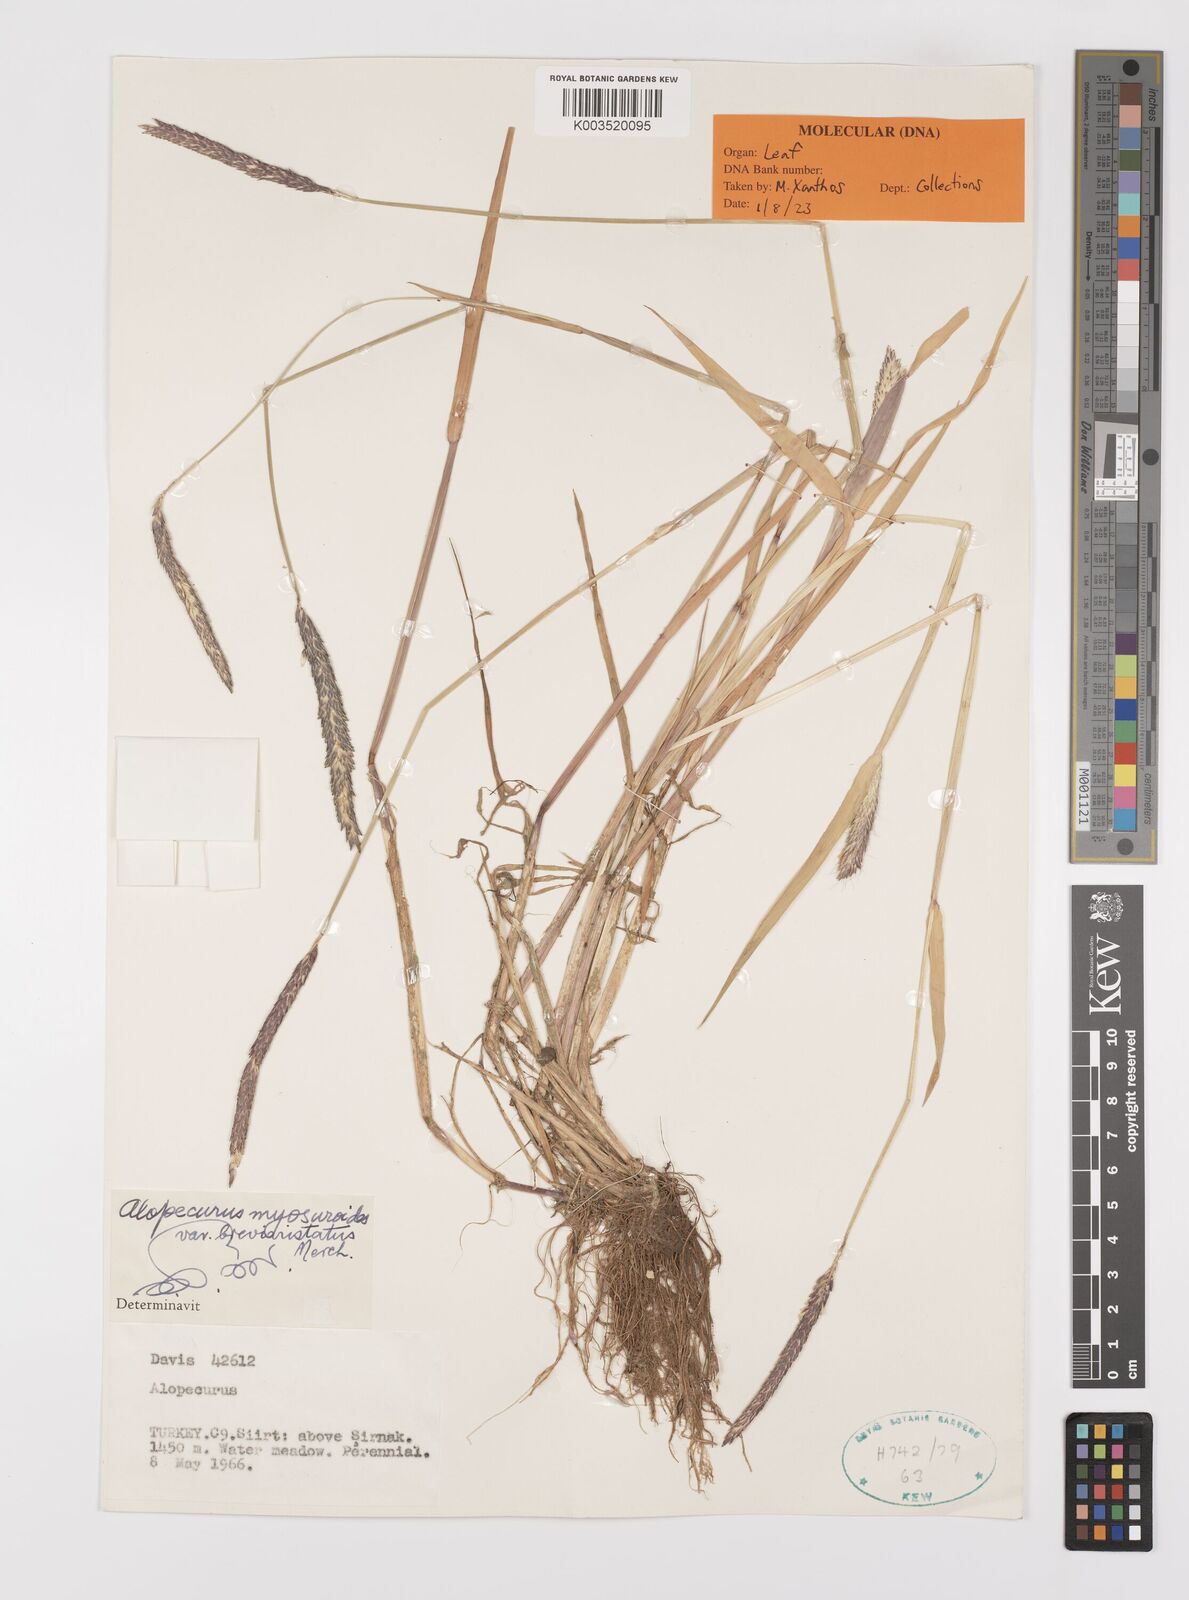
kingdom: Plantae
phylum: Tracheophyta
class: Liliopsida
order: Poales
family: Poaceae
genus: Alopecurus
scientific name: Alopecurus myosuroides
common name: Black-grass
